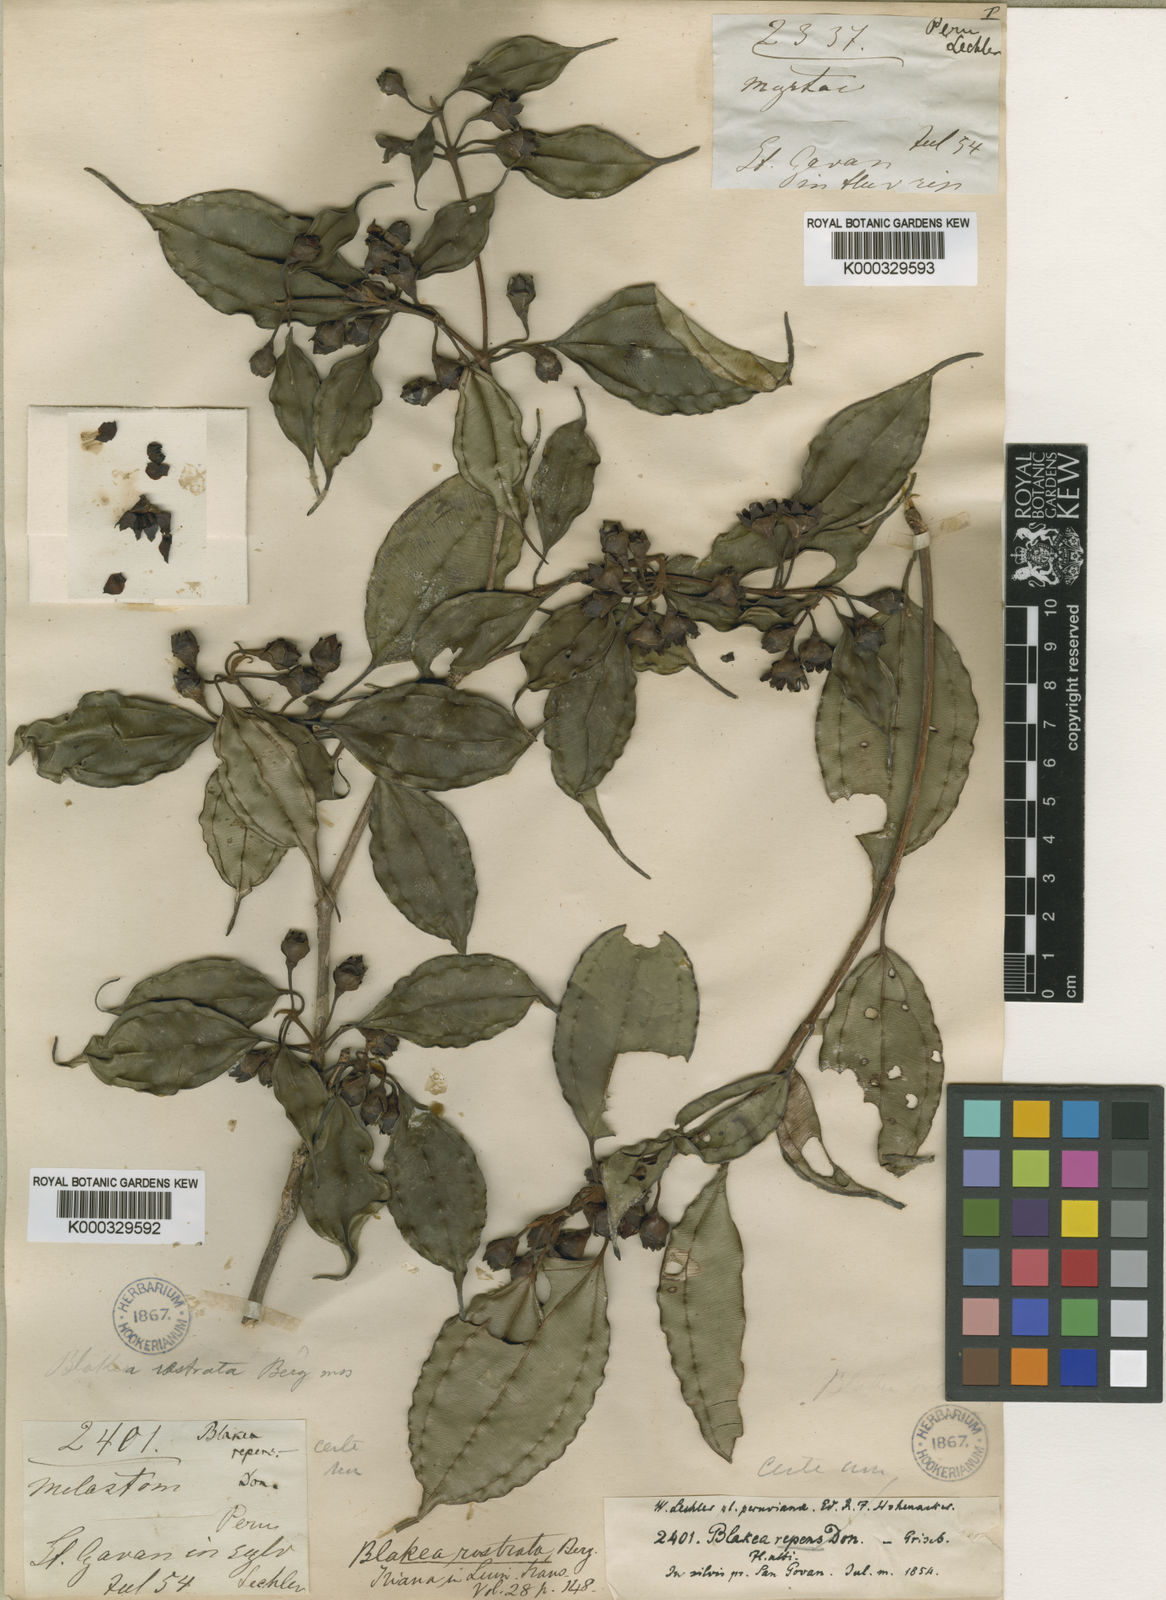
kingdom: Plantae
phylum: Tracheophyta
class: Magnoliopsida
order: Myrtales
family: Melastomataceae
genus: Blakea
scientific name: Blakea rostrata
